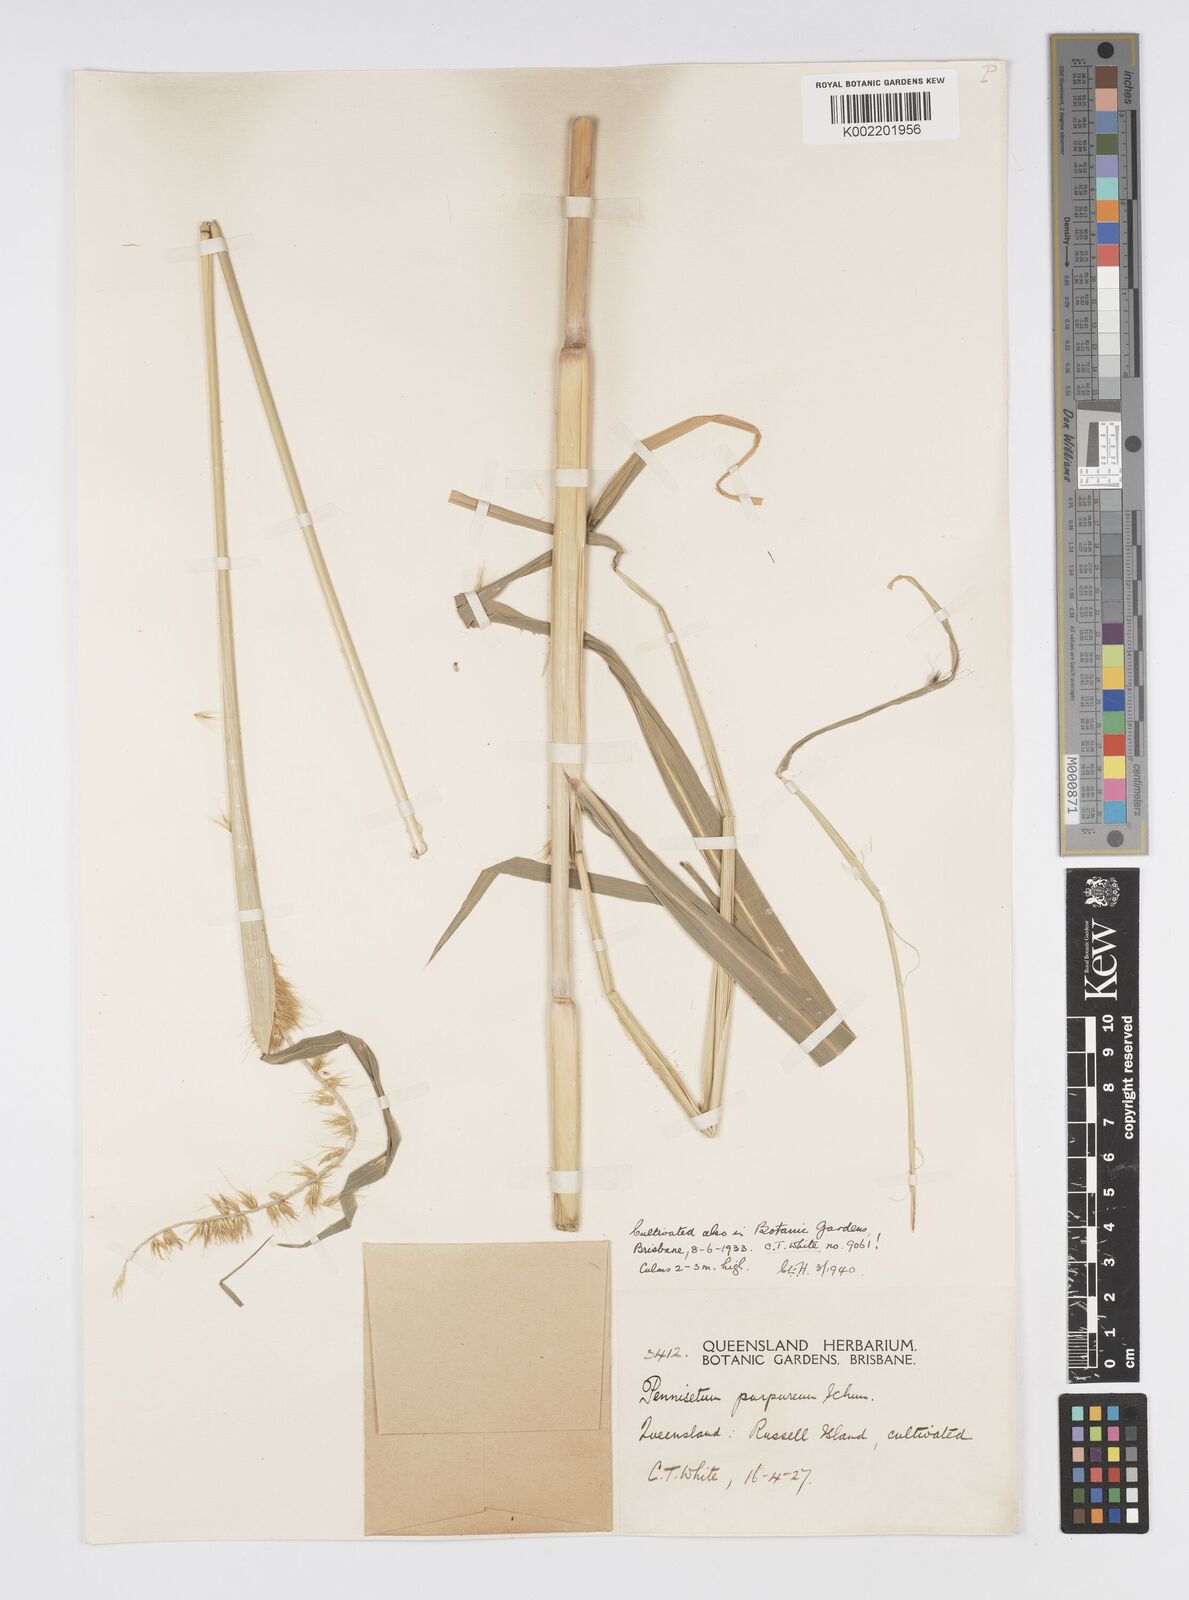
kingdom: Plantae
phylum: Tracheophyta
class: Liliopsida
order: Poales
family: Poaceae
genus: Cenchrus
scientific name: Cenchrus purpureus
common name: Elephant grass
